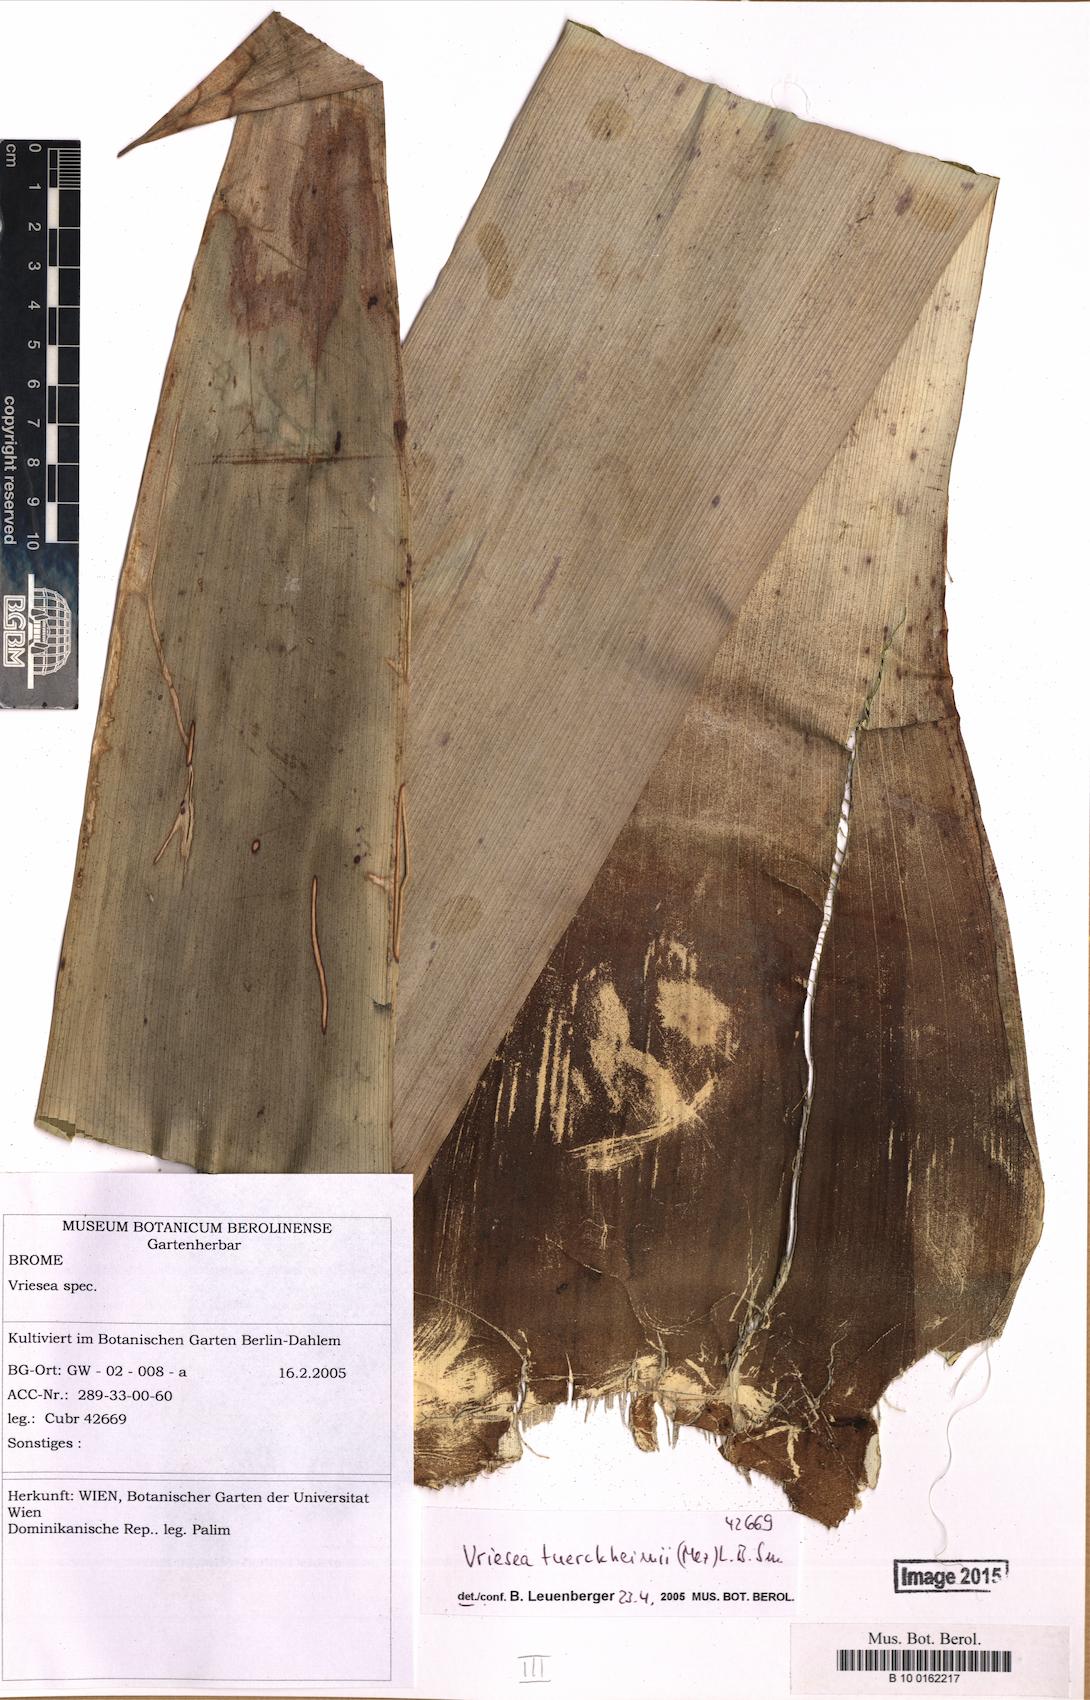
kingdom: Plantae
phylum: Tracheophyta
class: Liliopsida
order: Poales
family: Bromeliaceae
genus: Zizkaea
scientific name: Zizkaea tuerckheimii
